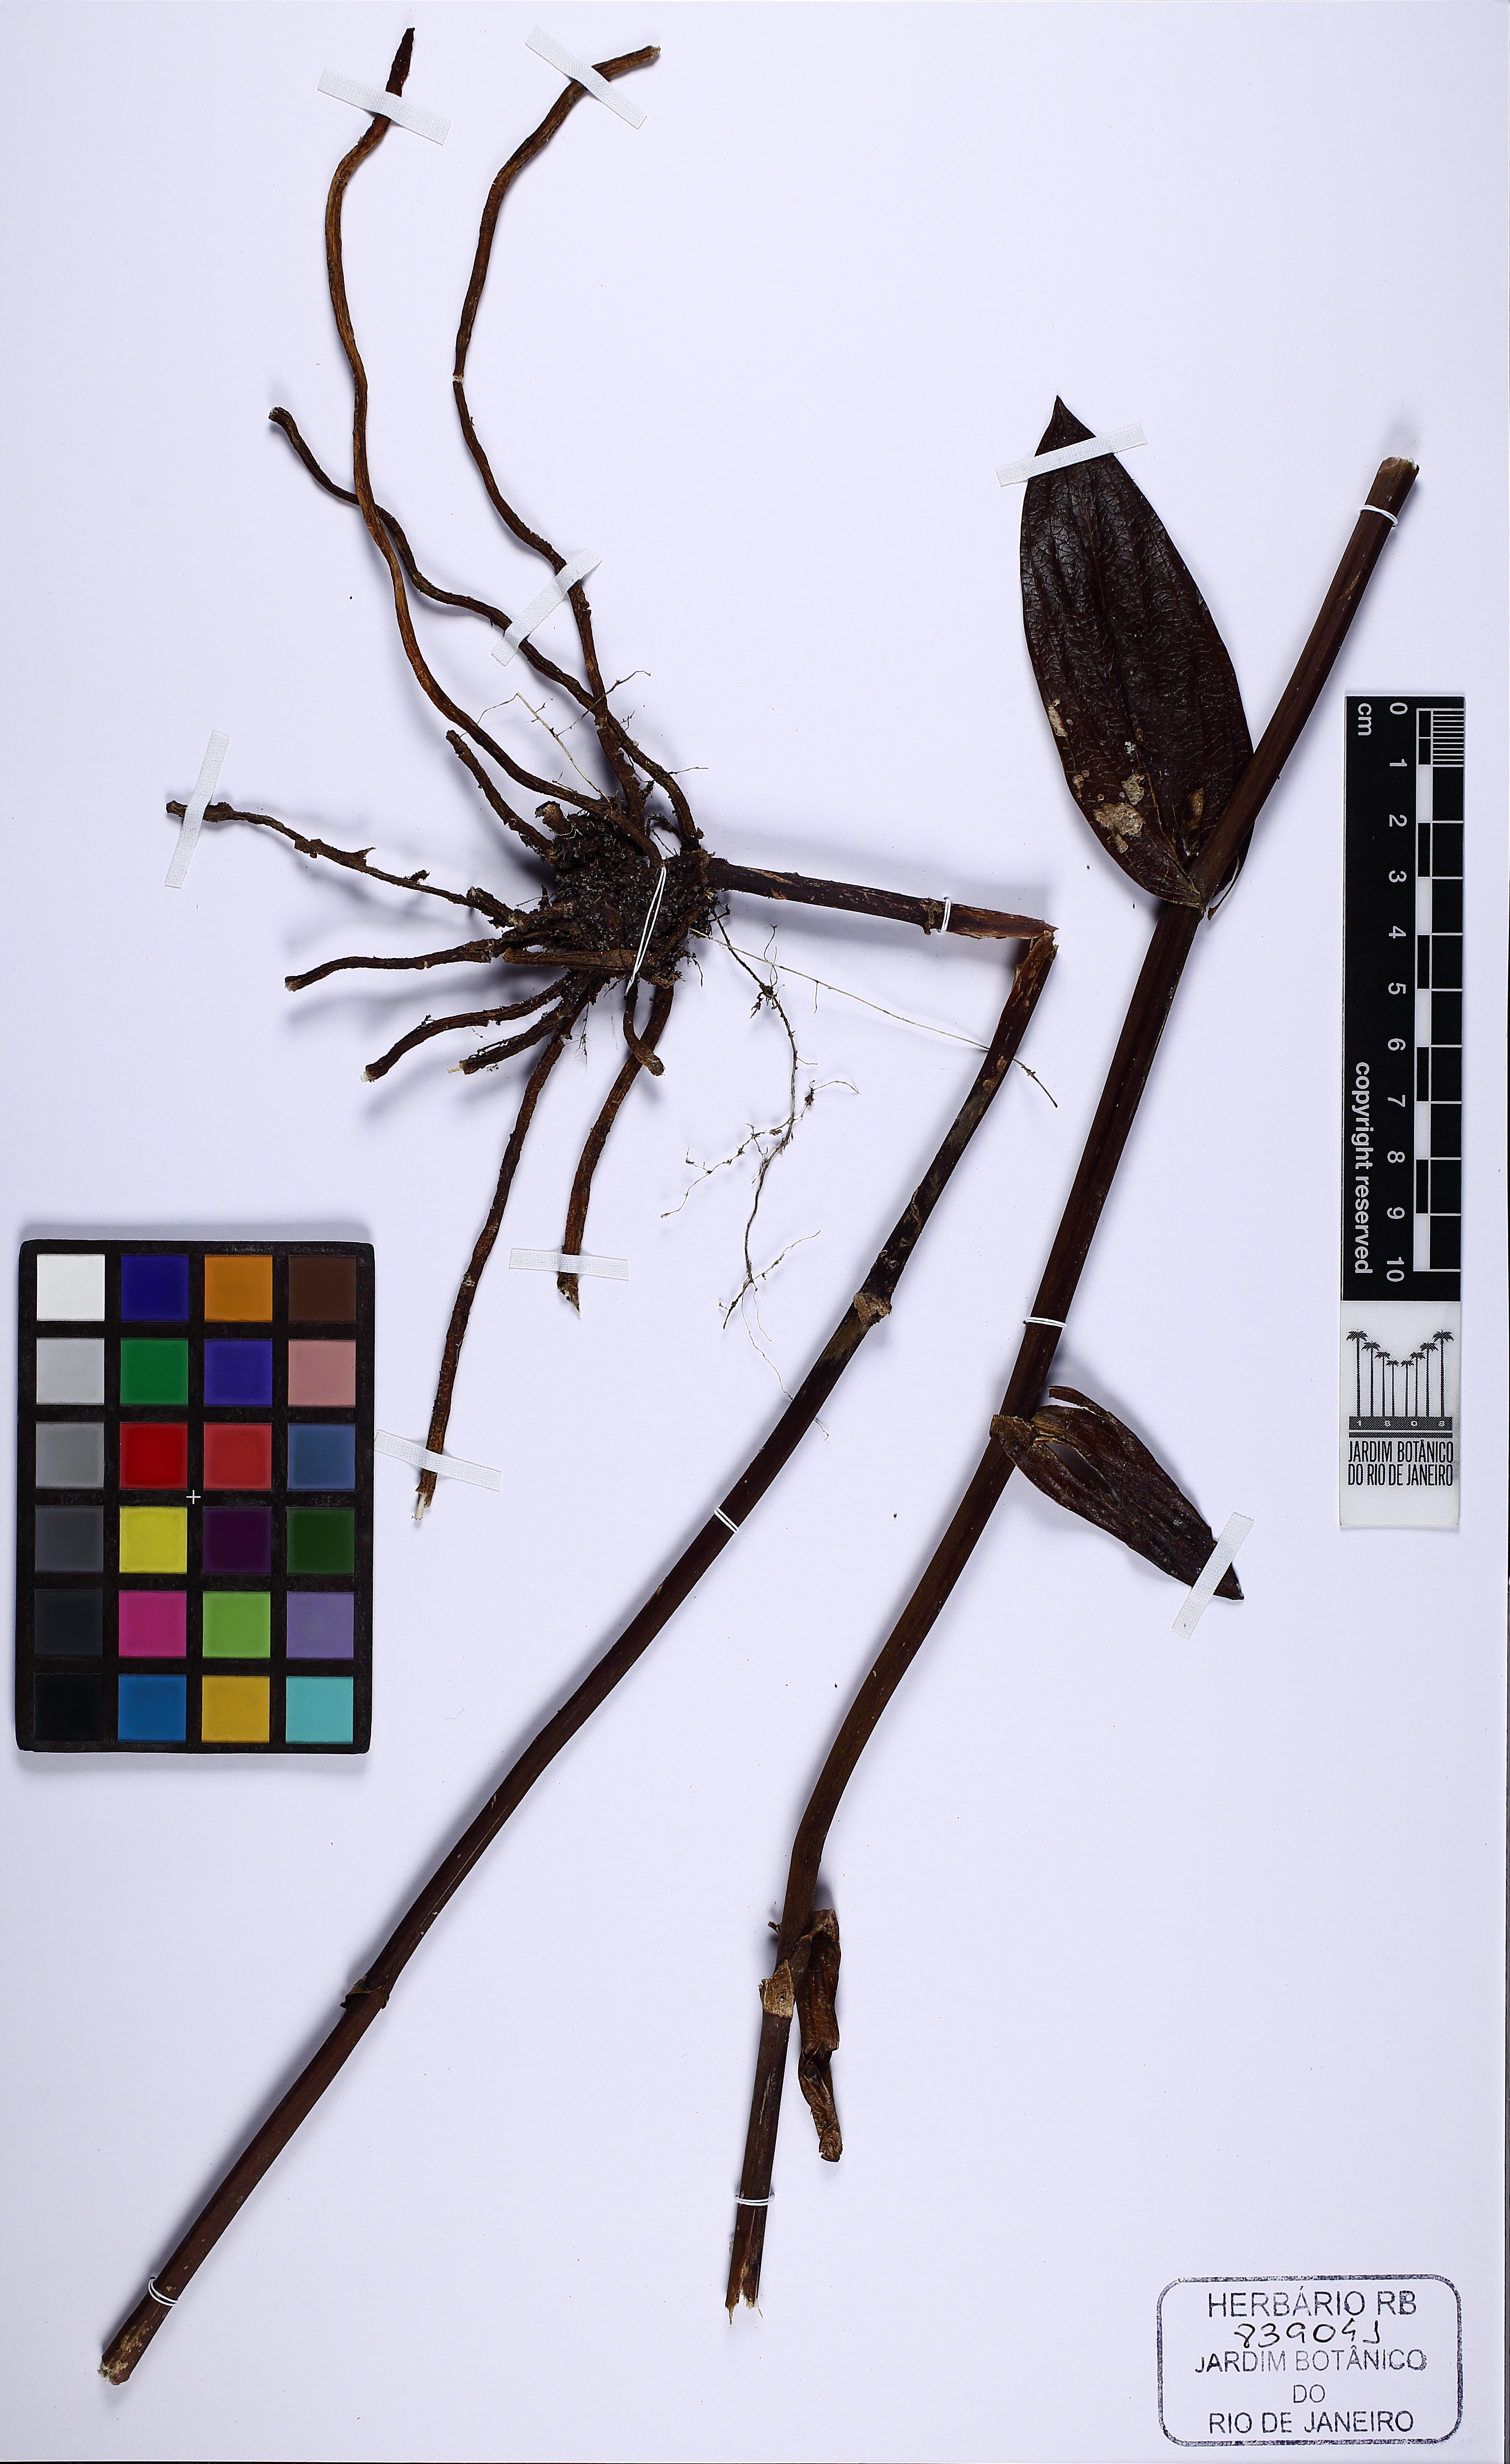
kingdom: Plantae
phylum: Tracheophyta
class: Liliopsida
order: Asparagales
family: Orchidaceae
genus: Epistephium
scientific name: Epistephium
